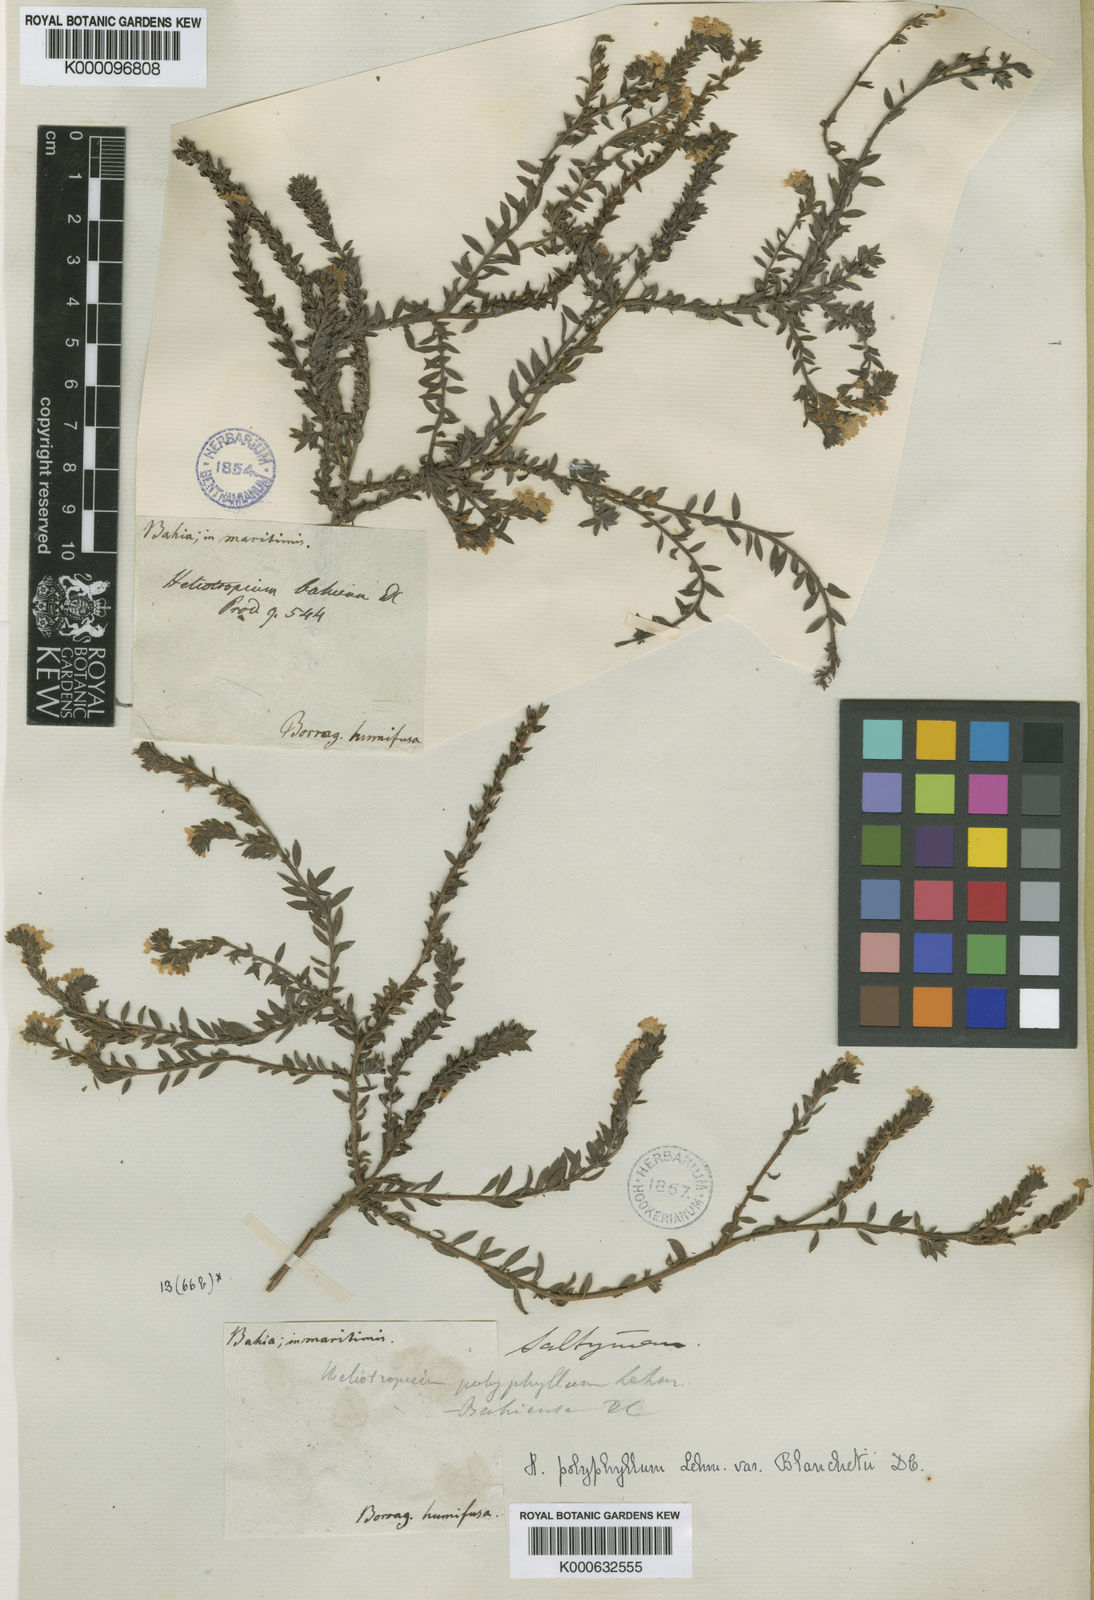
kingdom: Plantae
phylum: Tracheophyta
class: Magnoliopsida
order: Boraginales
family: Heliotropiaceae
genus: Euploca
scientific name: Euploca polyphylla
